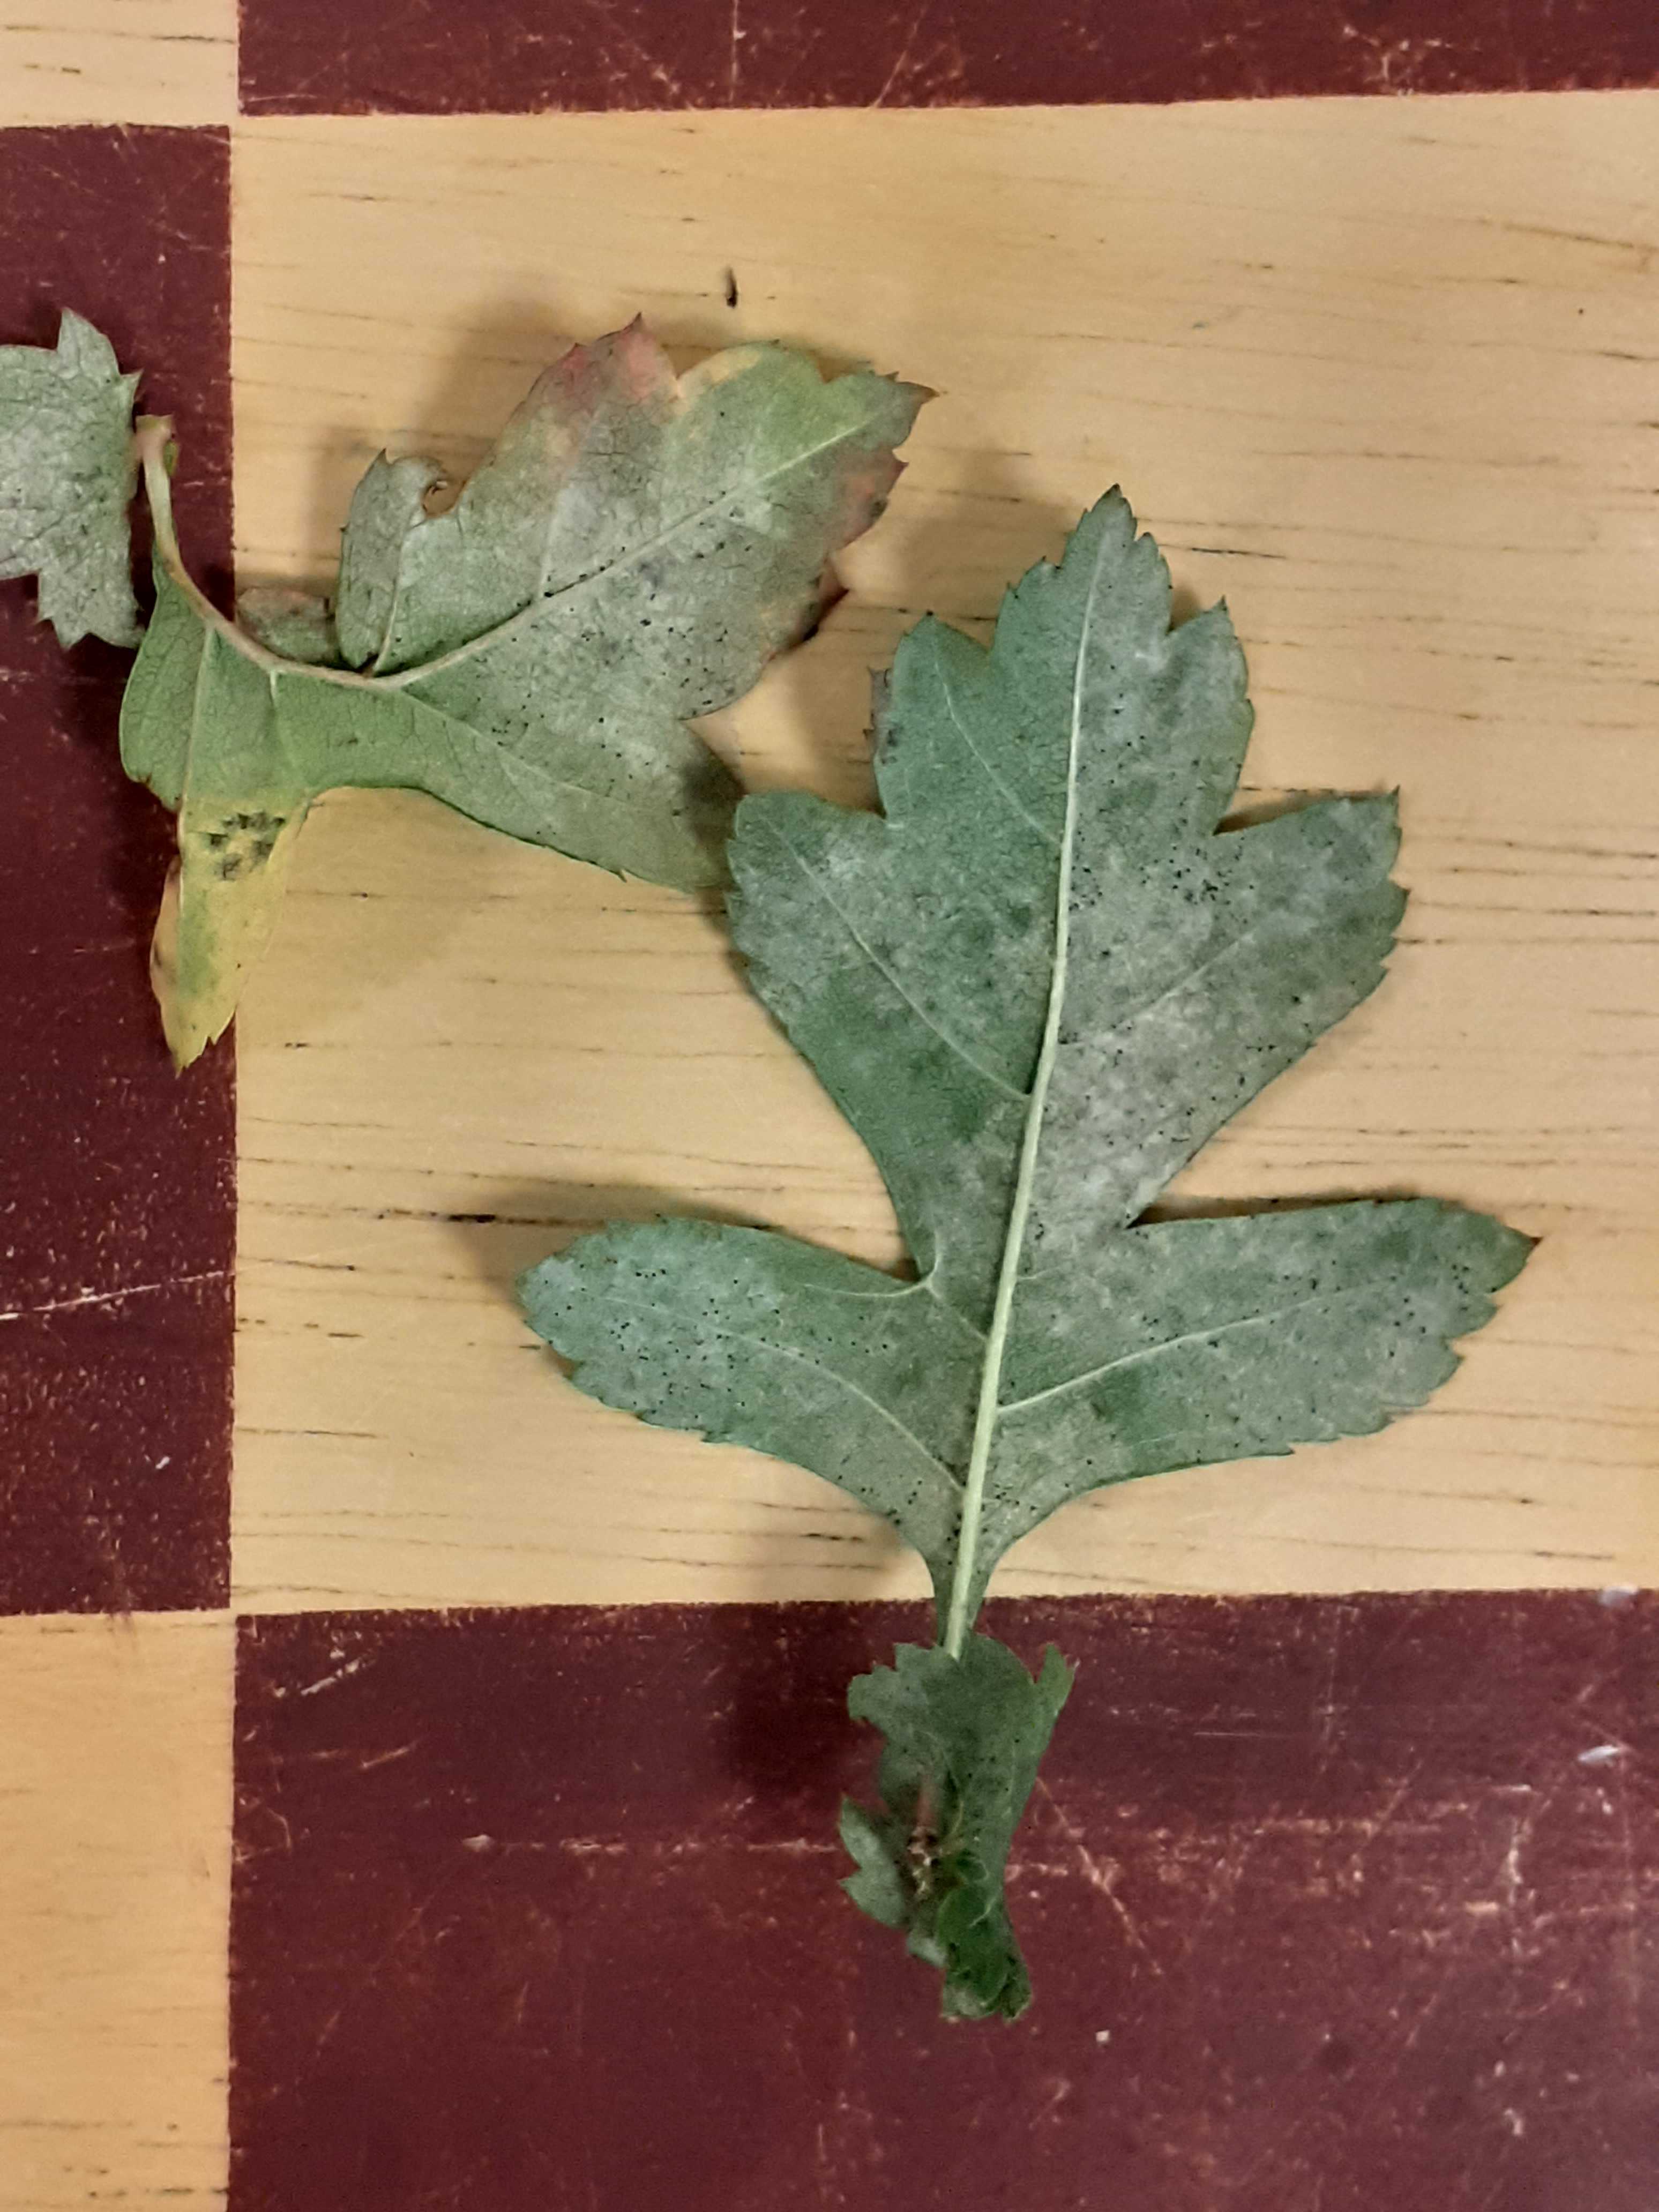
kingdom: Fungi
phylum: Ascomycota
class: Leotiomycetes
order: Helotiales
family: Erysiphaceae
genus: Phyllactinia
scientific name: Phyllactinia mali
